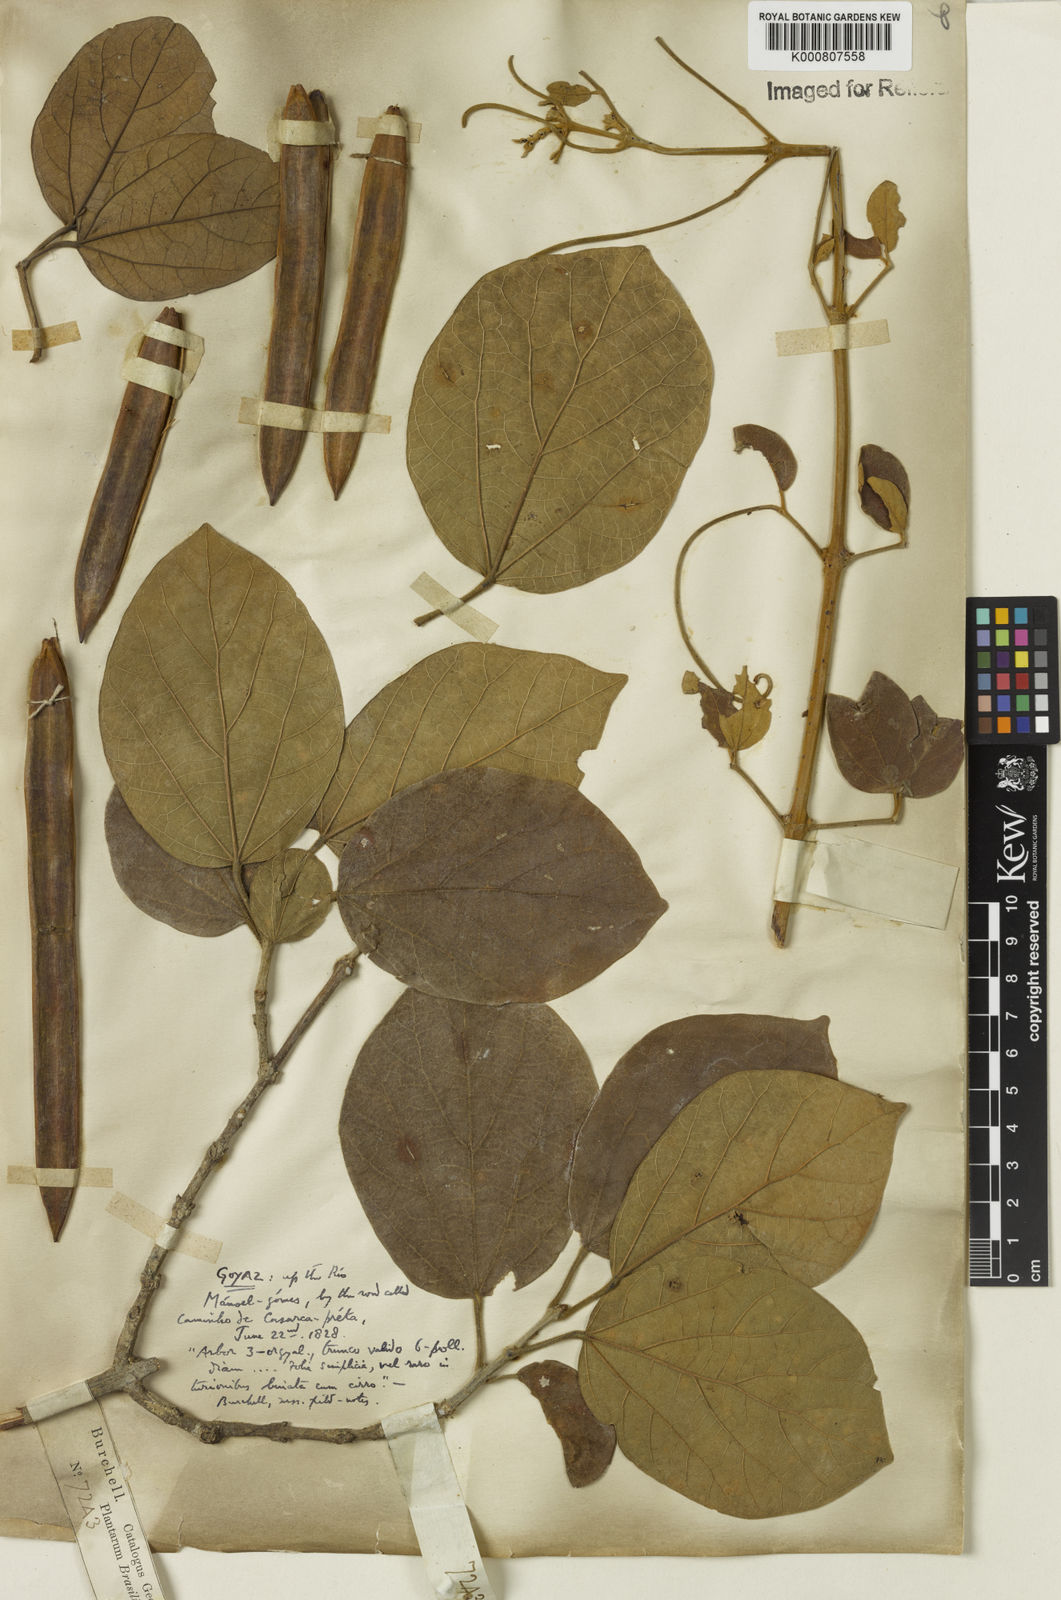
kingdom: Plantae
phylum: Tracheophyta
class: Magnoliopsida
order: Lamiales
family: Bignoniaceae
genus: Xylophragma
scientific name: Xylophragma platyphyllum
